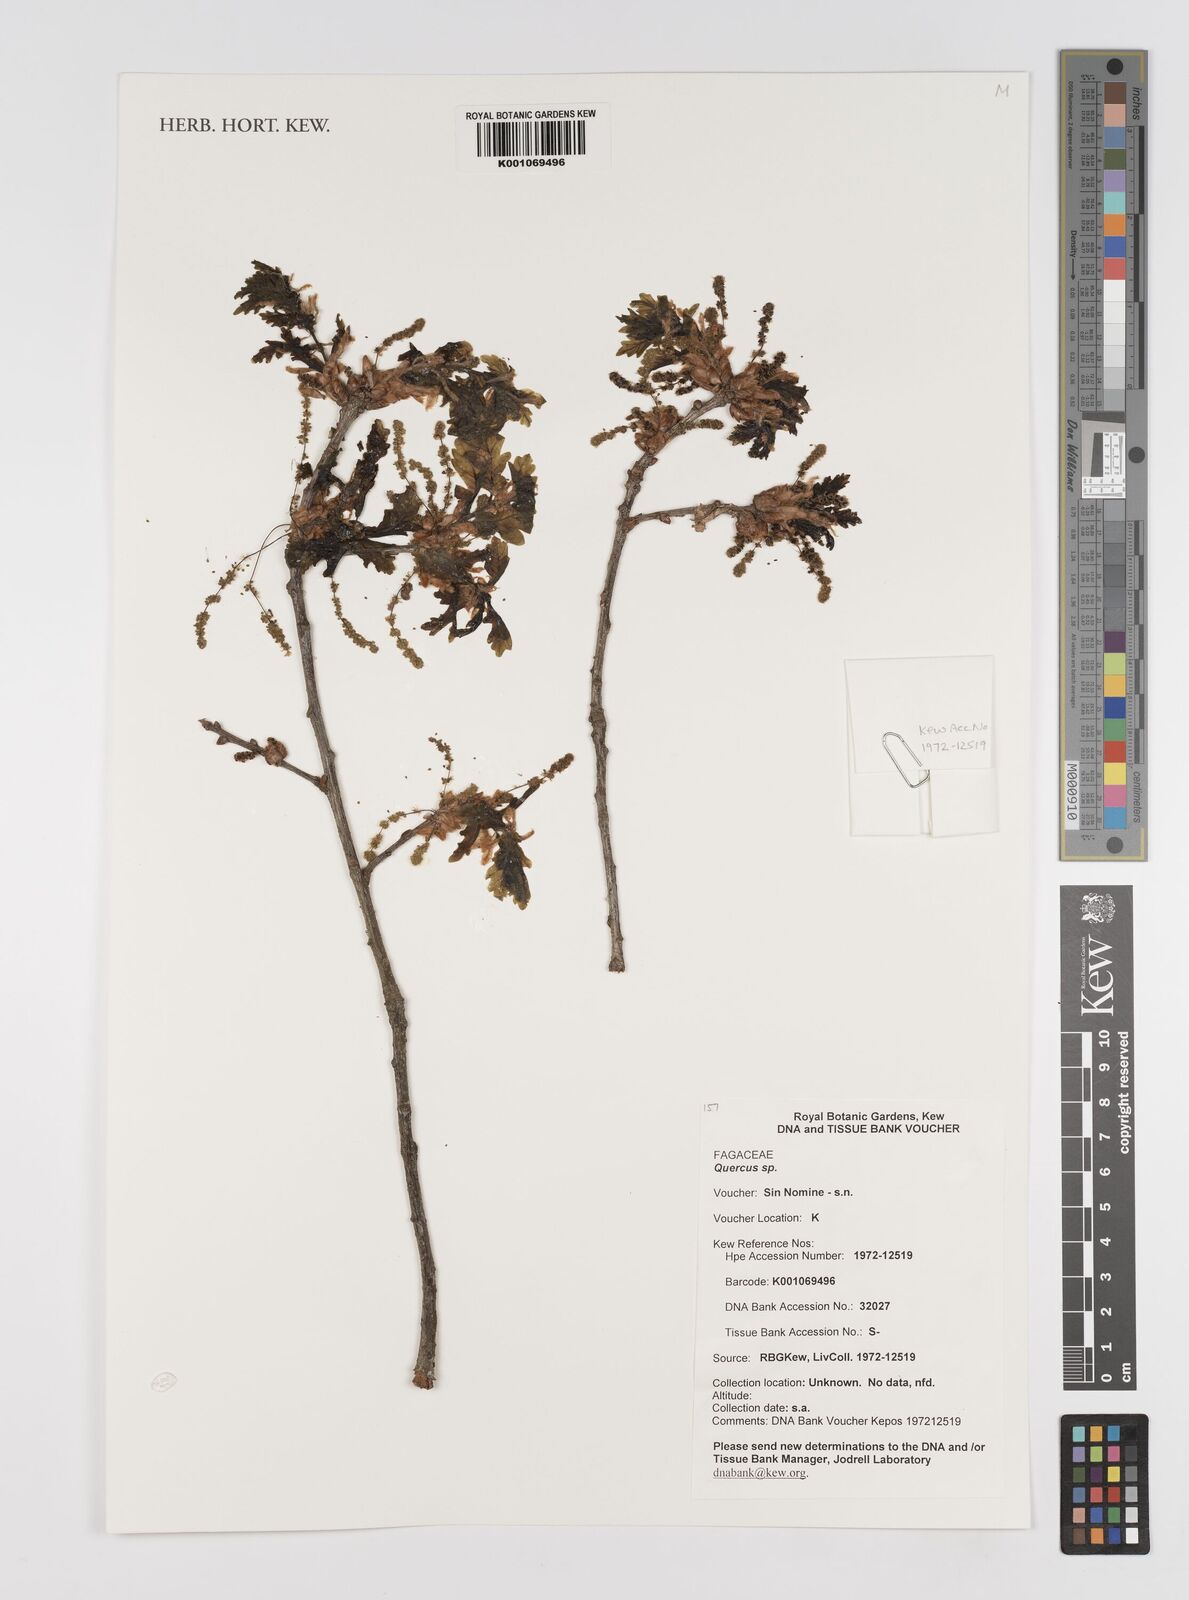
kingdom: Plantae
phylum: Tracheophyta
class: Magnoliopsida
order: Fagales
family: Fagaceae
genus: Quercus
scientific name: Quercus
